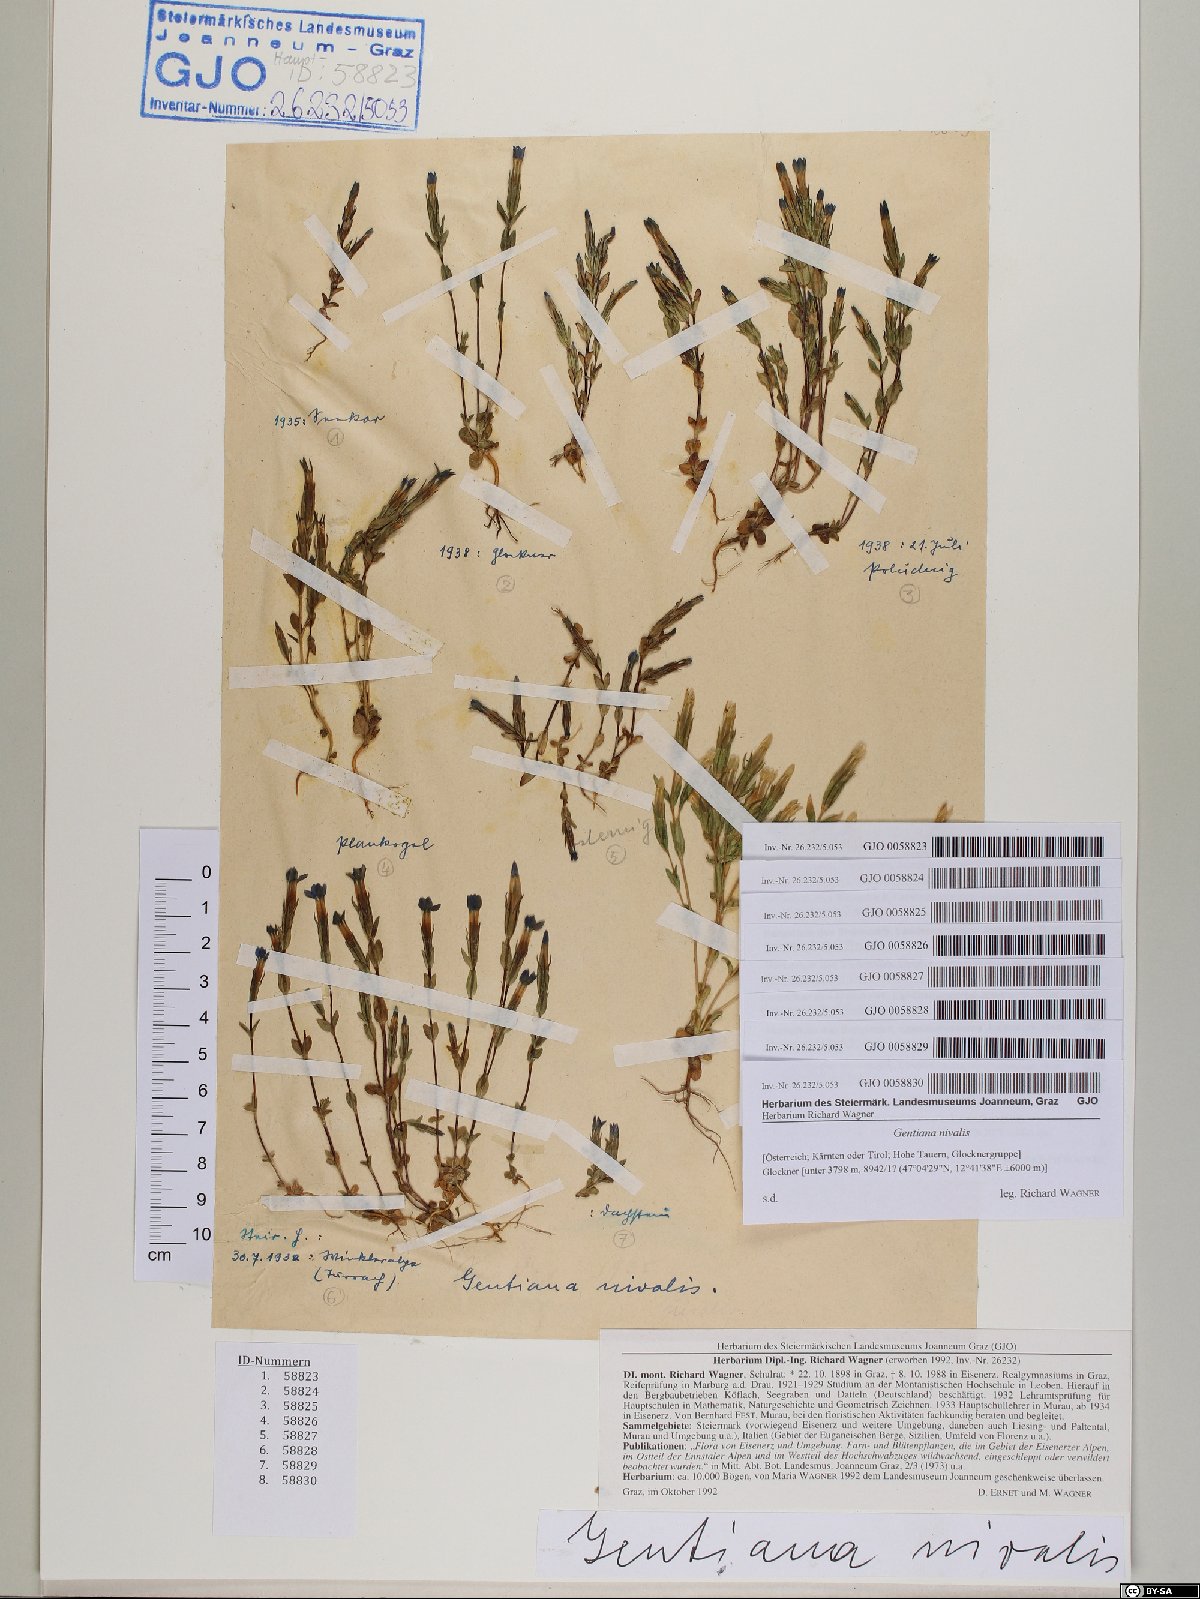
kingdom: Plantae
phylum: Tracheophyta
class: Magnoliopsida
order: Gentianales
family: Gentianaceae
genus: Gentiana
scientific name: Gentiana nivalis
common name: Alpine gentian
